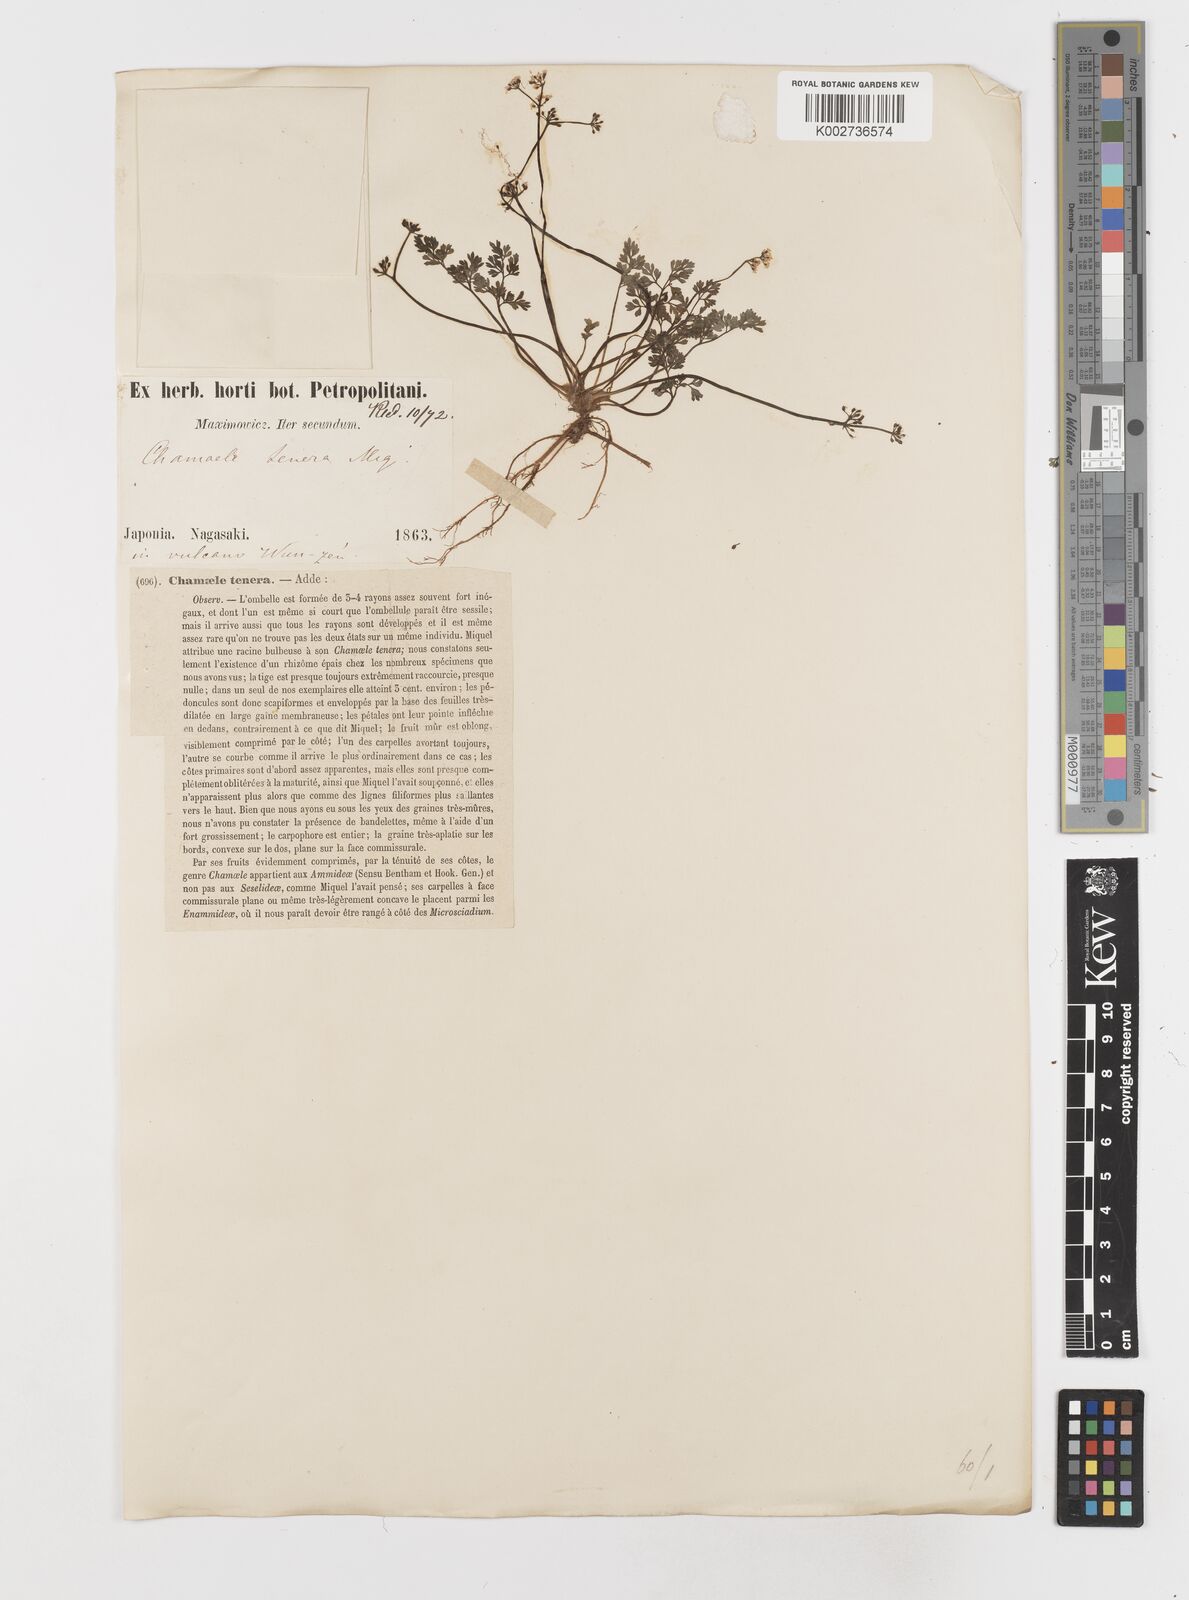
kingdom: Plantae
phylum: Tracheophyta
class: Magnoliopsida
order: Apiales
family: Apiaceae
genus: Aegopodium
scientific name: Aegopodium decumbens
